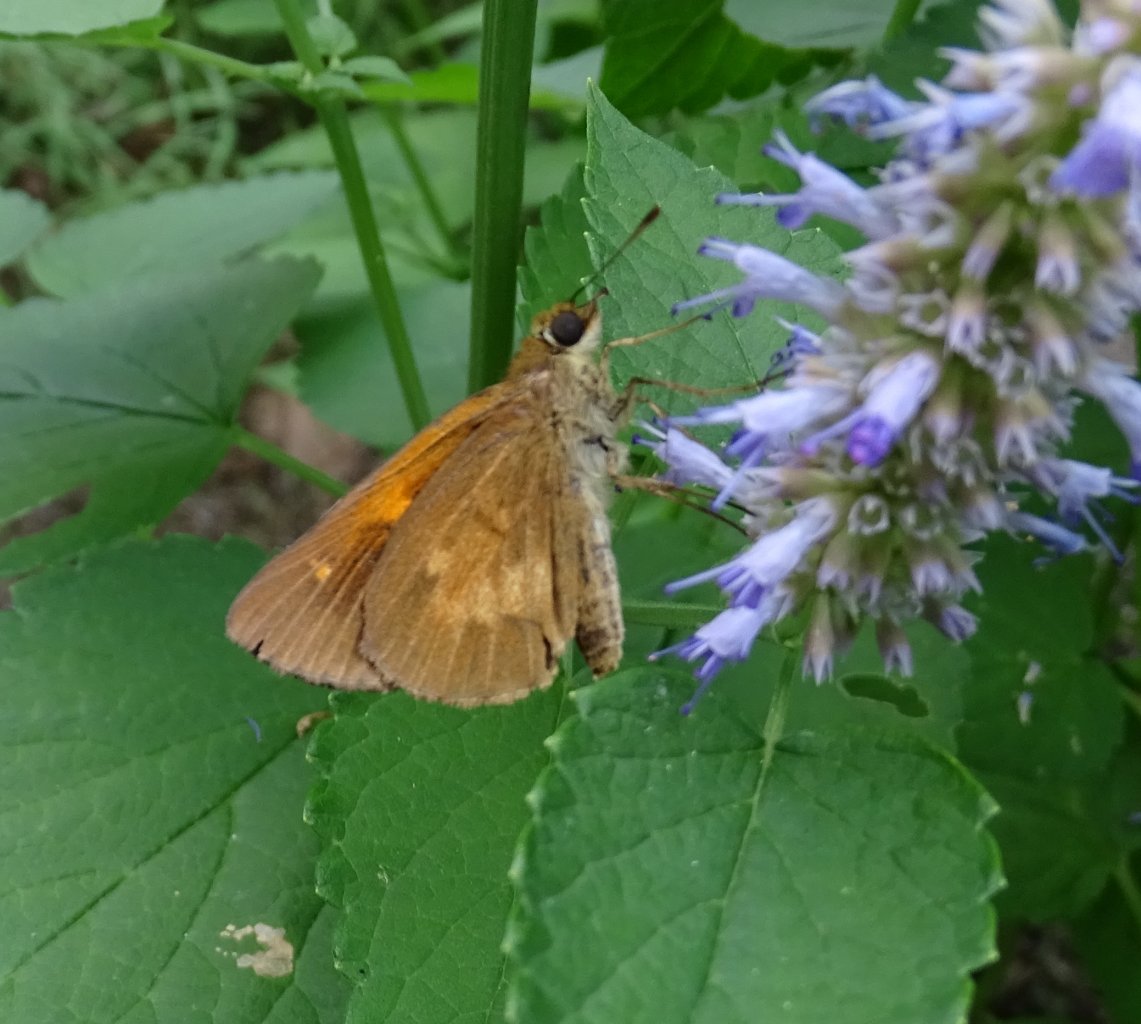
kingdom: Animalia
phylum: Arthropoda
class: Insecta
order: Lepidoptera
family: Hesperiidae
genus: Poanes
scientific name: Poanes viator
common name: Broad-winged Skipper
